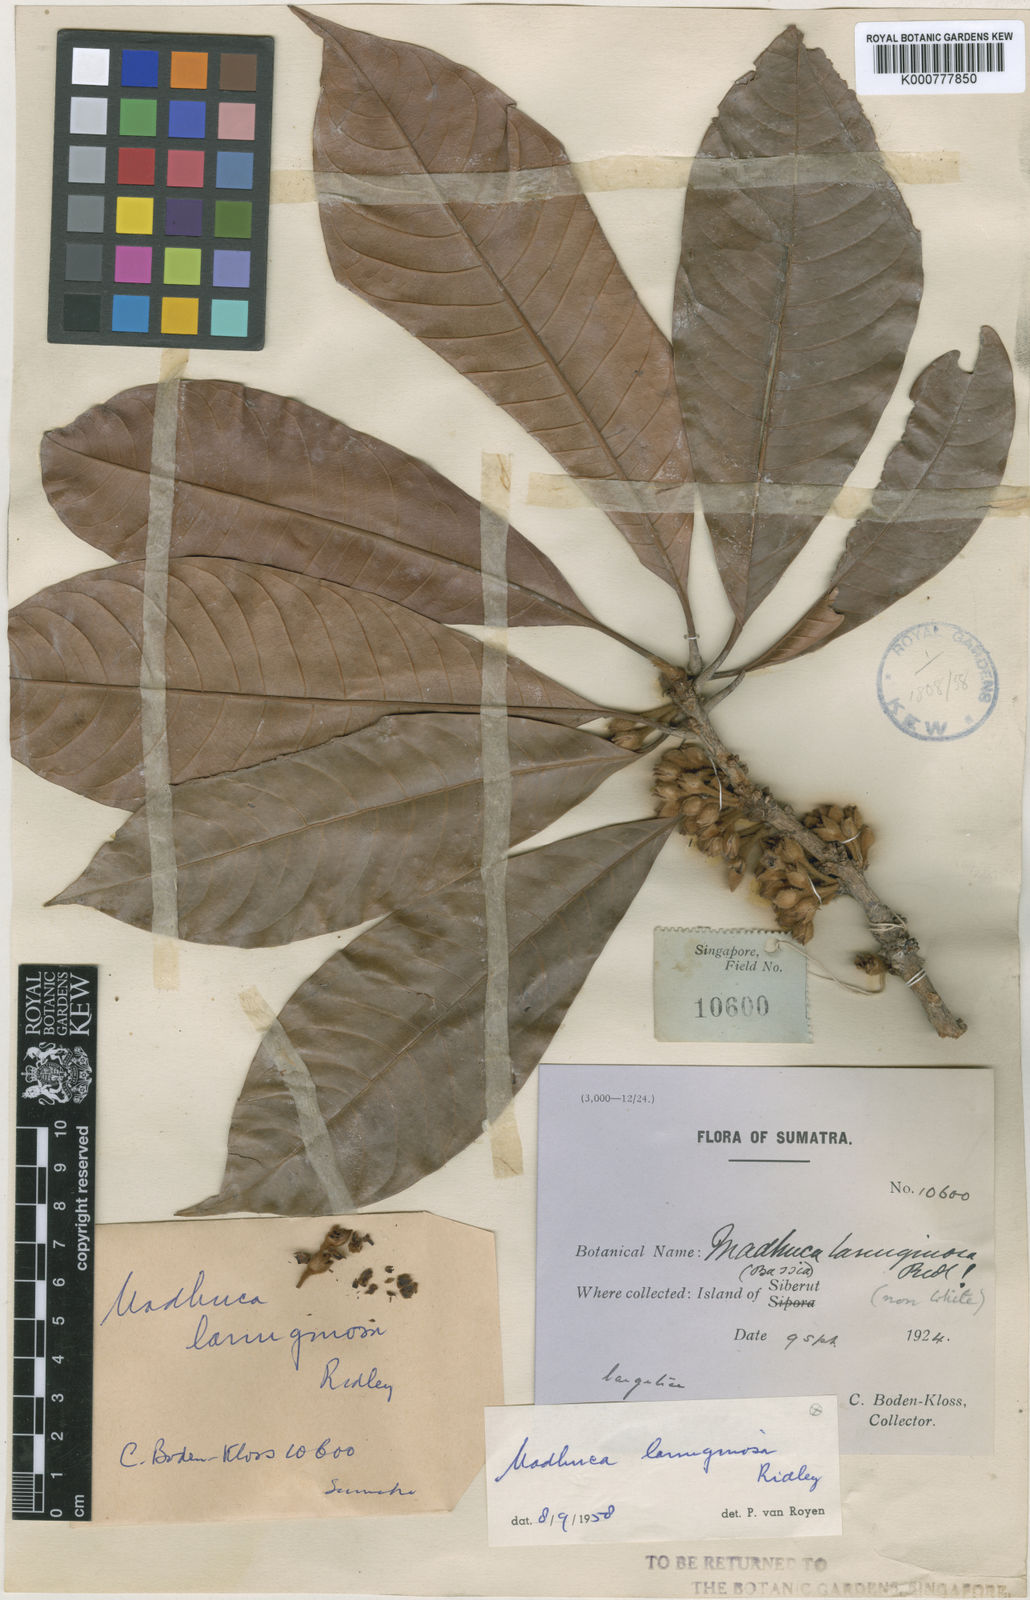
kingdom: Plantae
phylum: Tracheophyta
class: Magnoliopsida
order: Ericales
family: Sapotaceae
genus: Madhuca
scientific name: Madhuca lanuginosa
